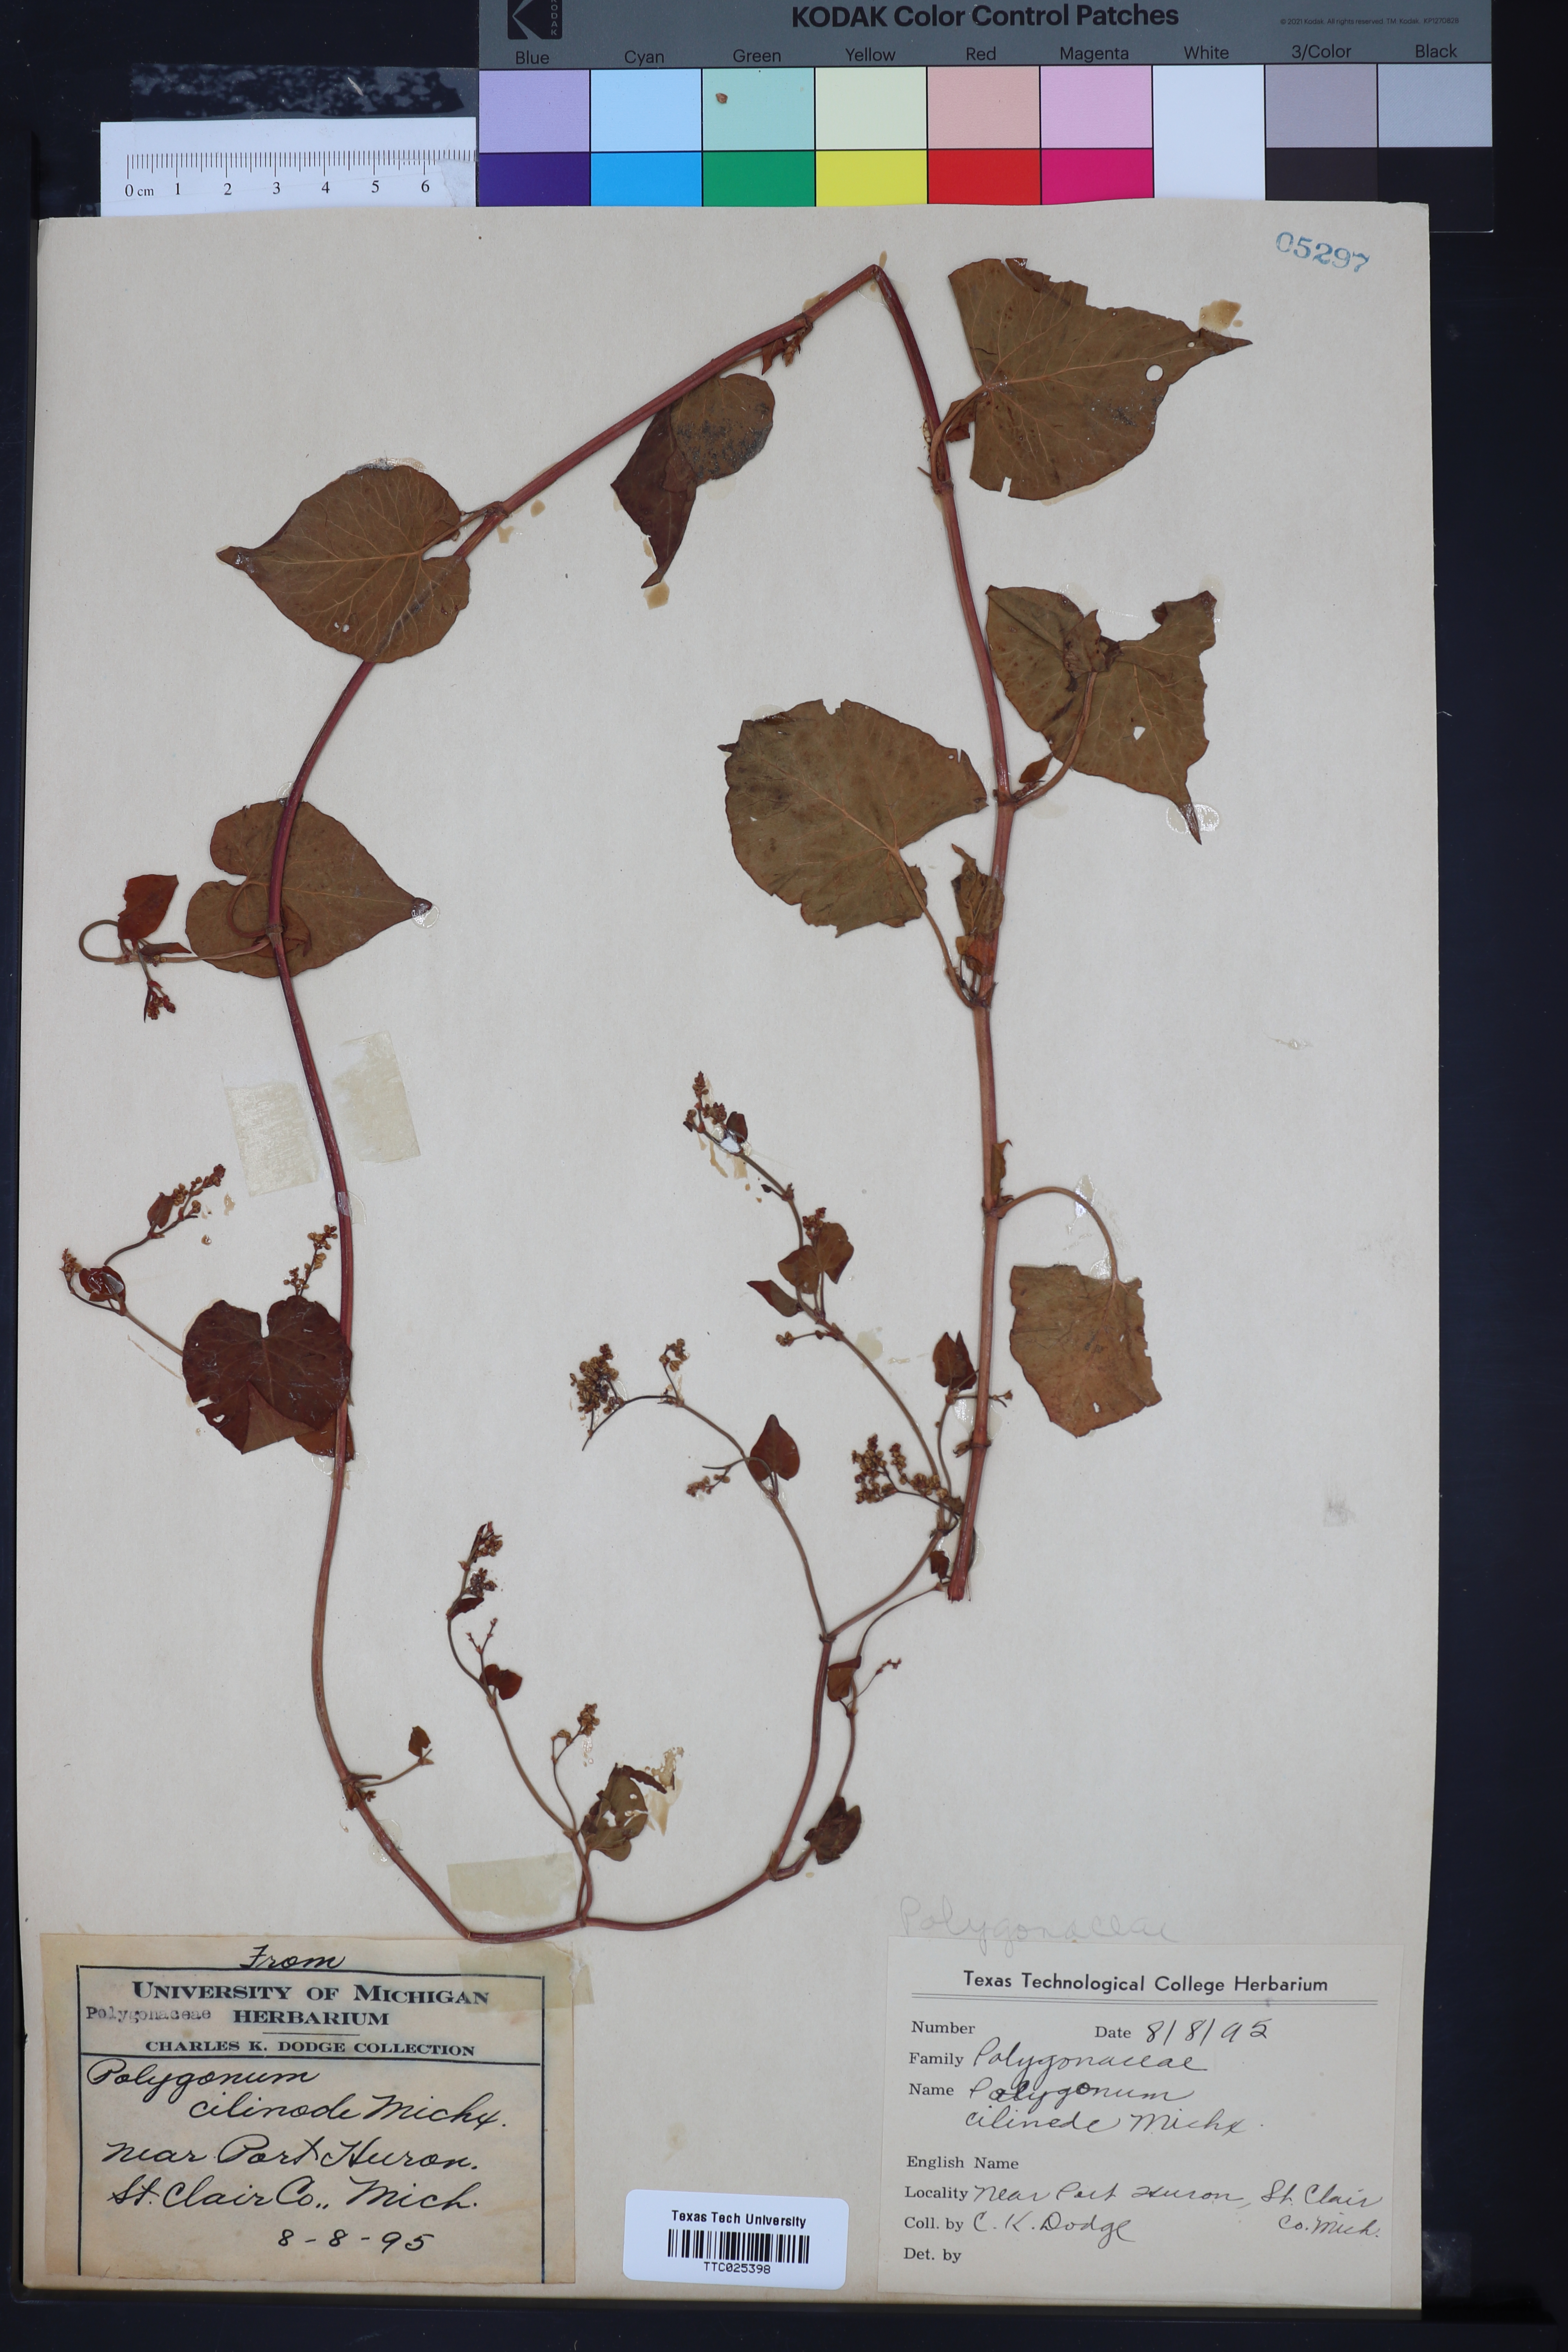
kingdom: Plantae
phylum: Tracheophyta
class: Magnoliopsida
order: Caryophyllales
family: Polygonaceae
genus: Parogonum
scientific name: Parogonum ciliinode
